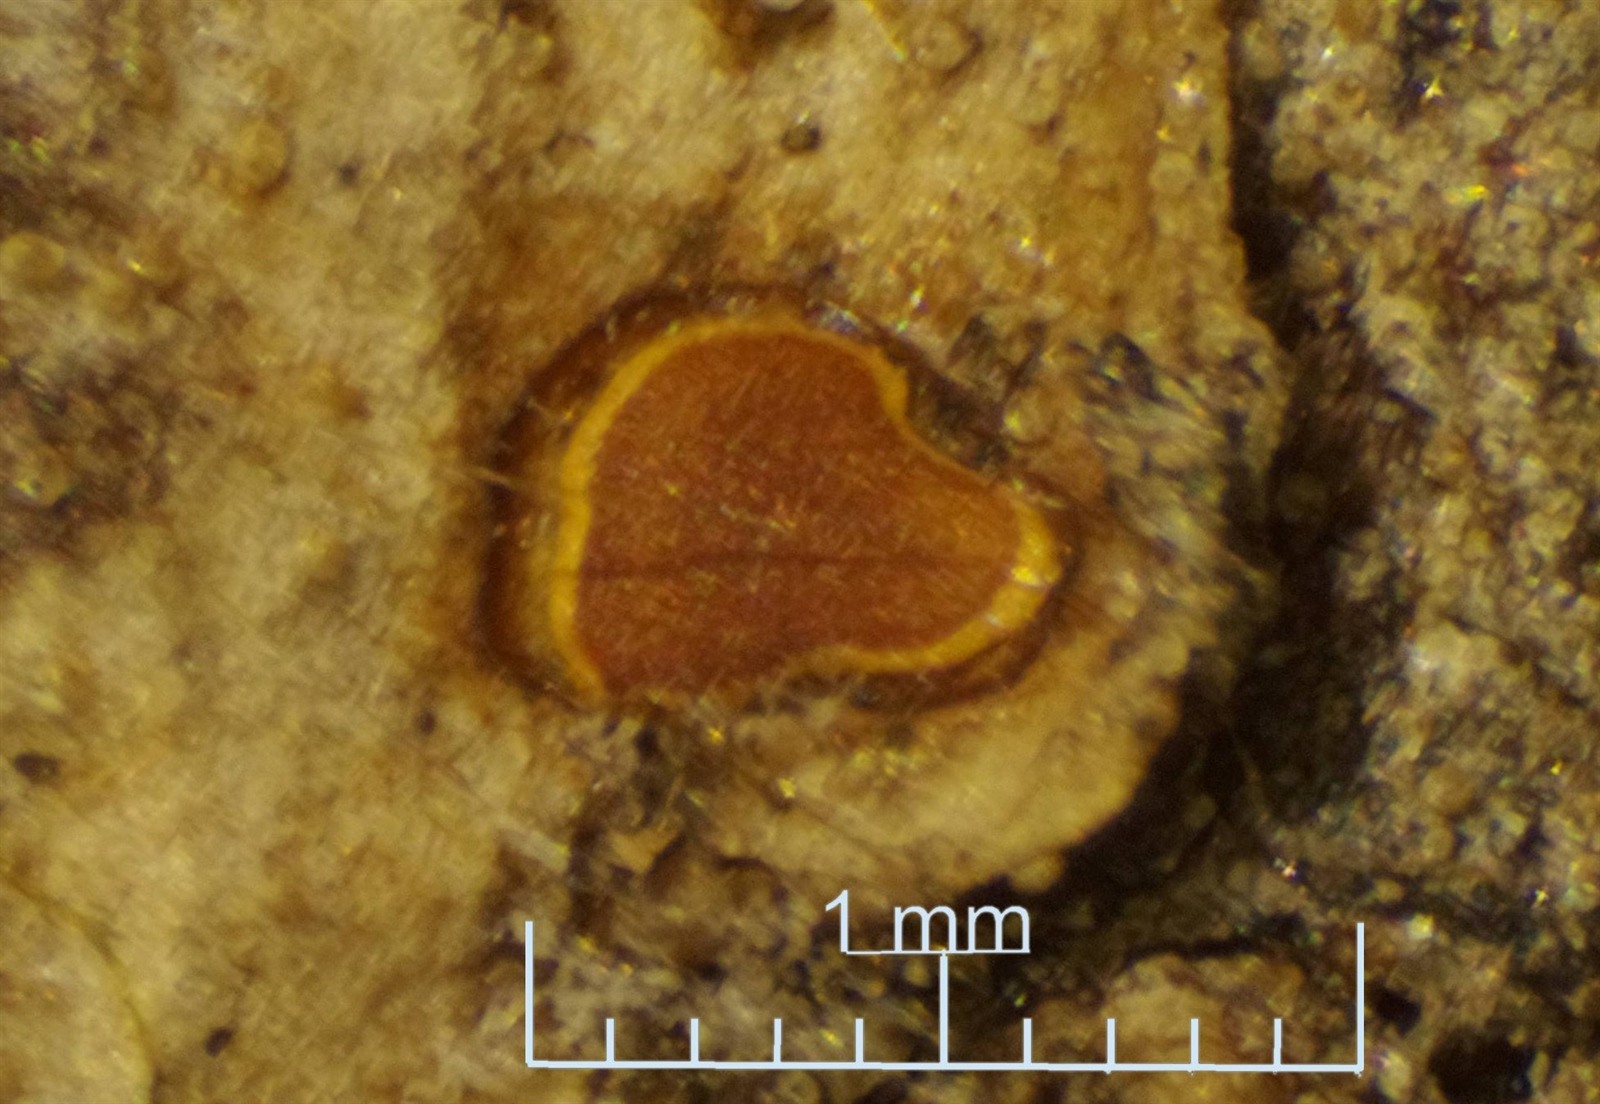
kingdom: Protozoa
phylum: Mycetozoa
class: Myxomycetes
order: Trichiales
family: Trichiaceae
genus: Perichaena
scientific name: Perichaena depressa
